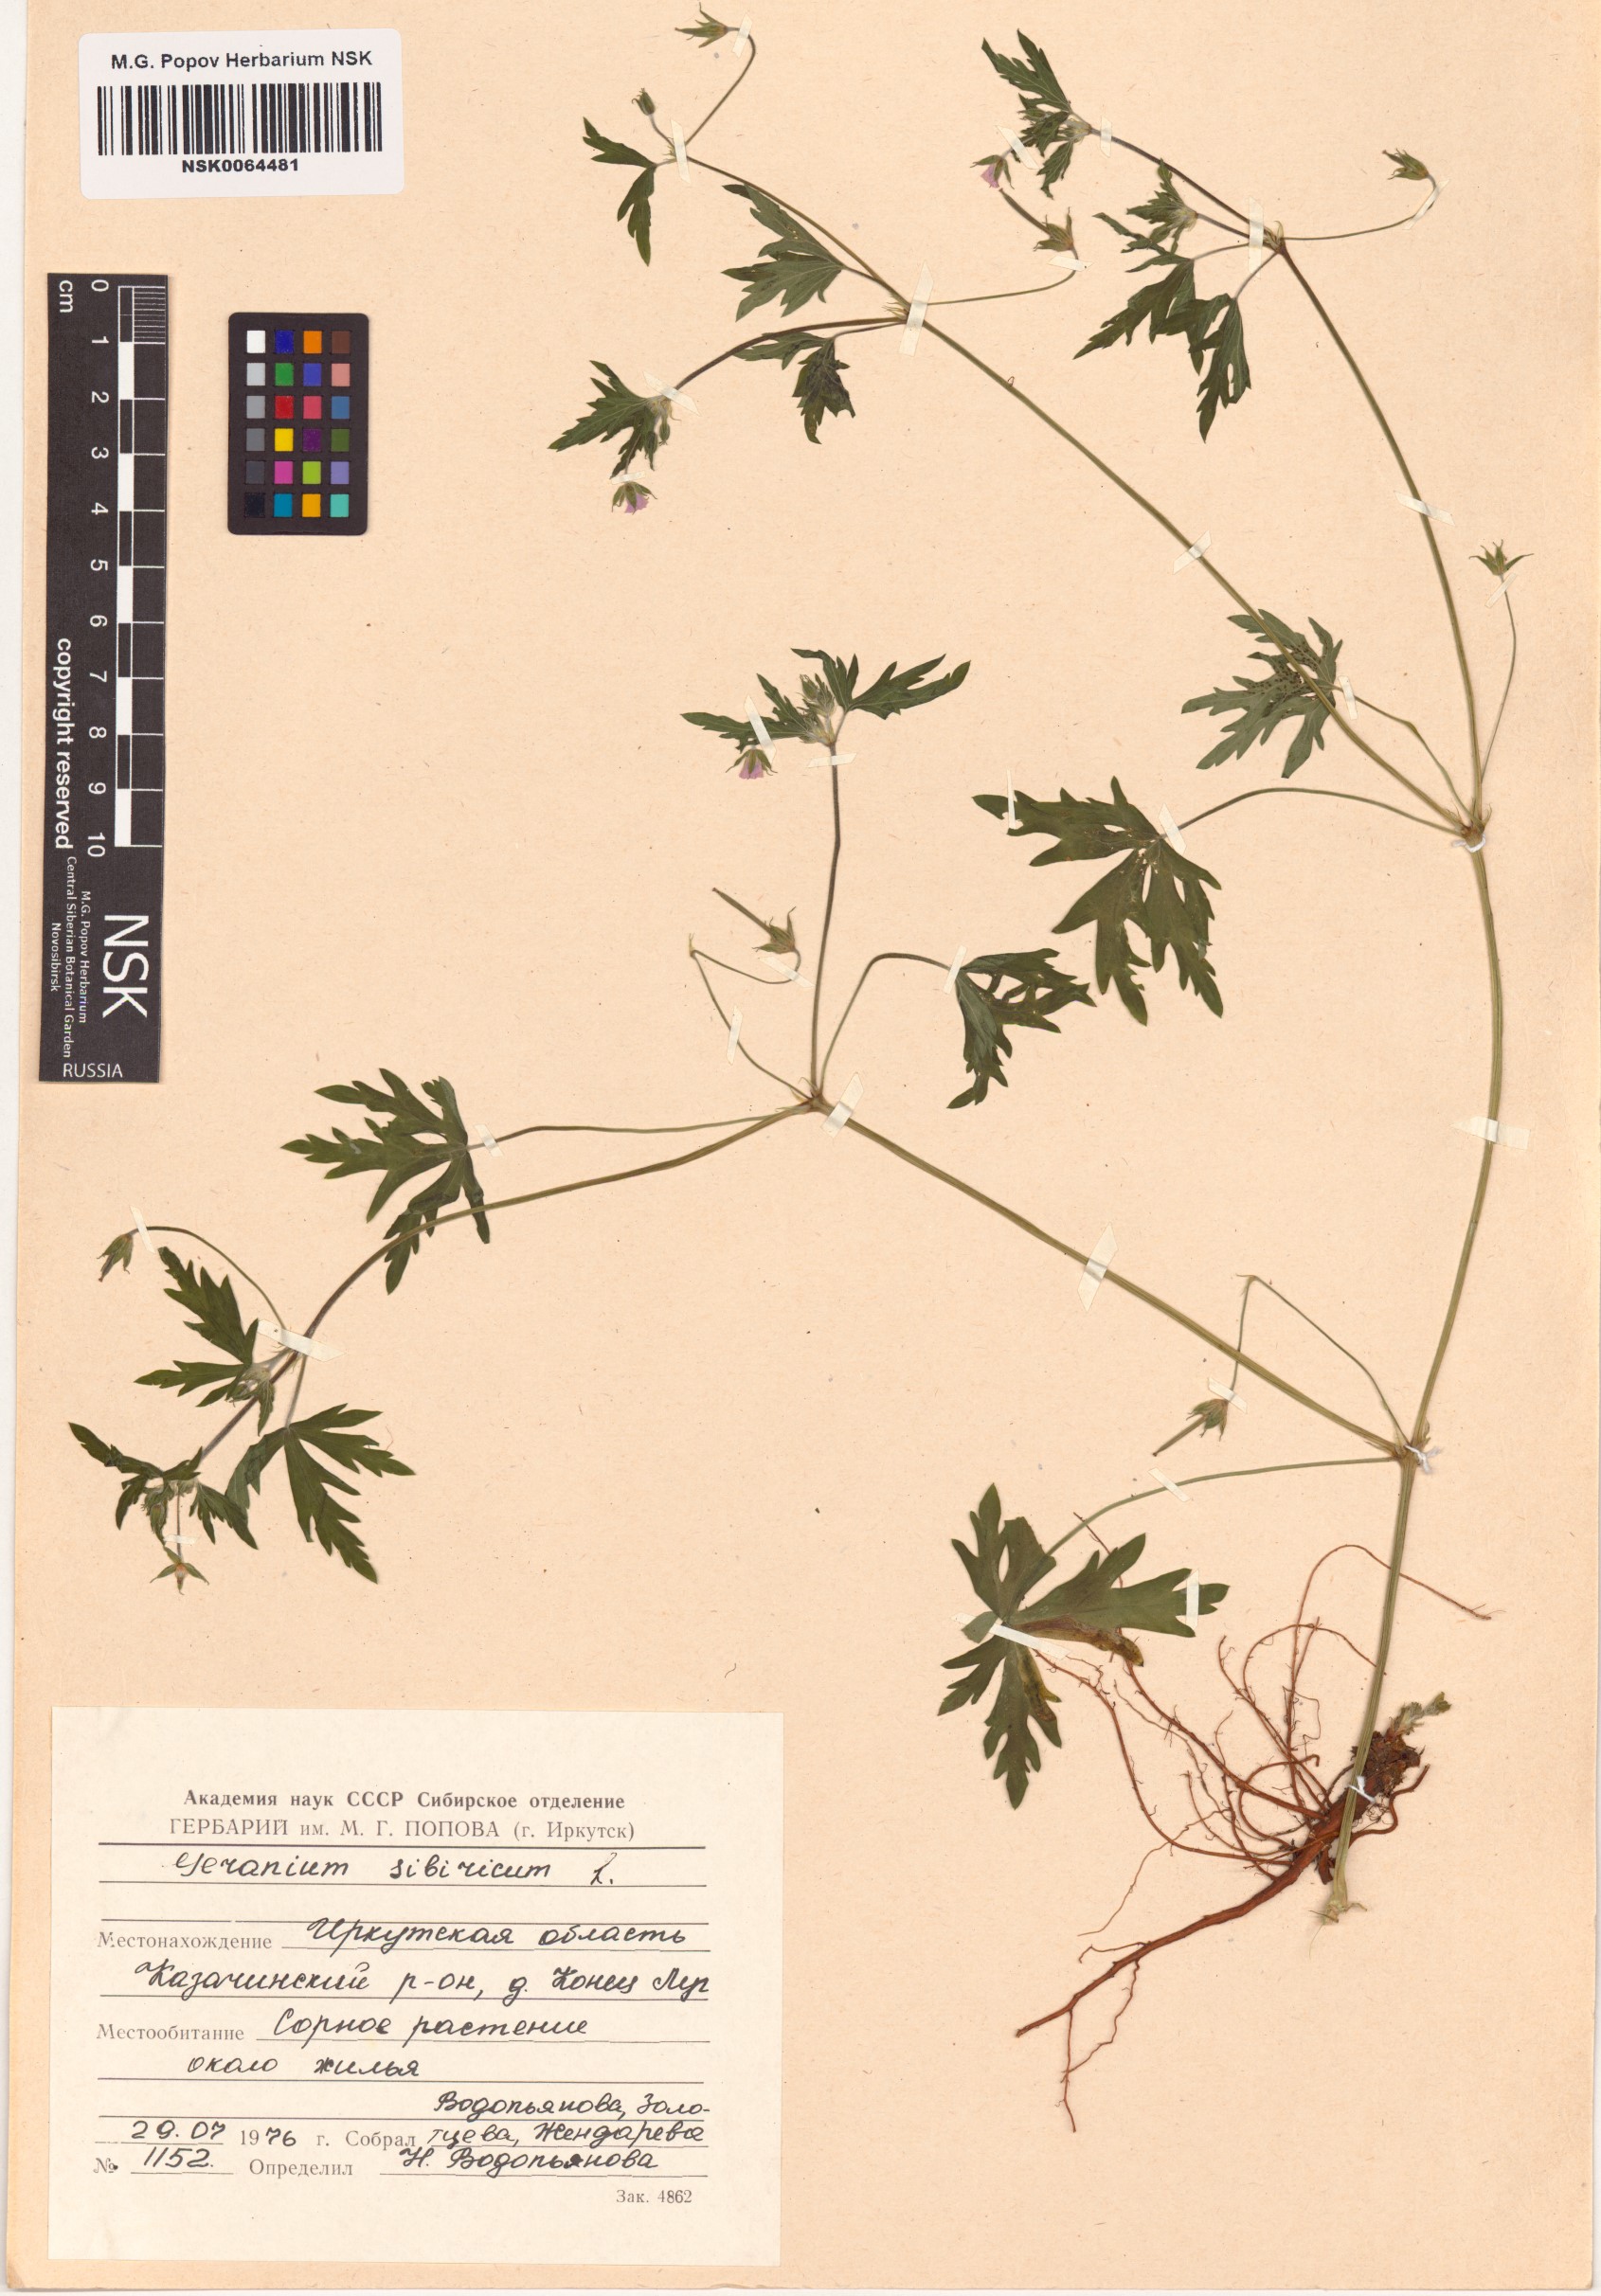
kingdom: Plantae
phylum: Tracheophyta
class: Magnoliopsida
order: Geraniales
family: Geraniaceae
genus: Geranium
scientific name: Geranium sibiricum
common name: Siberian crane's-bill
